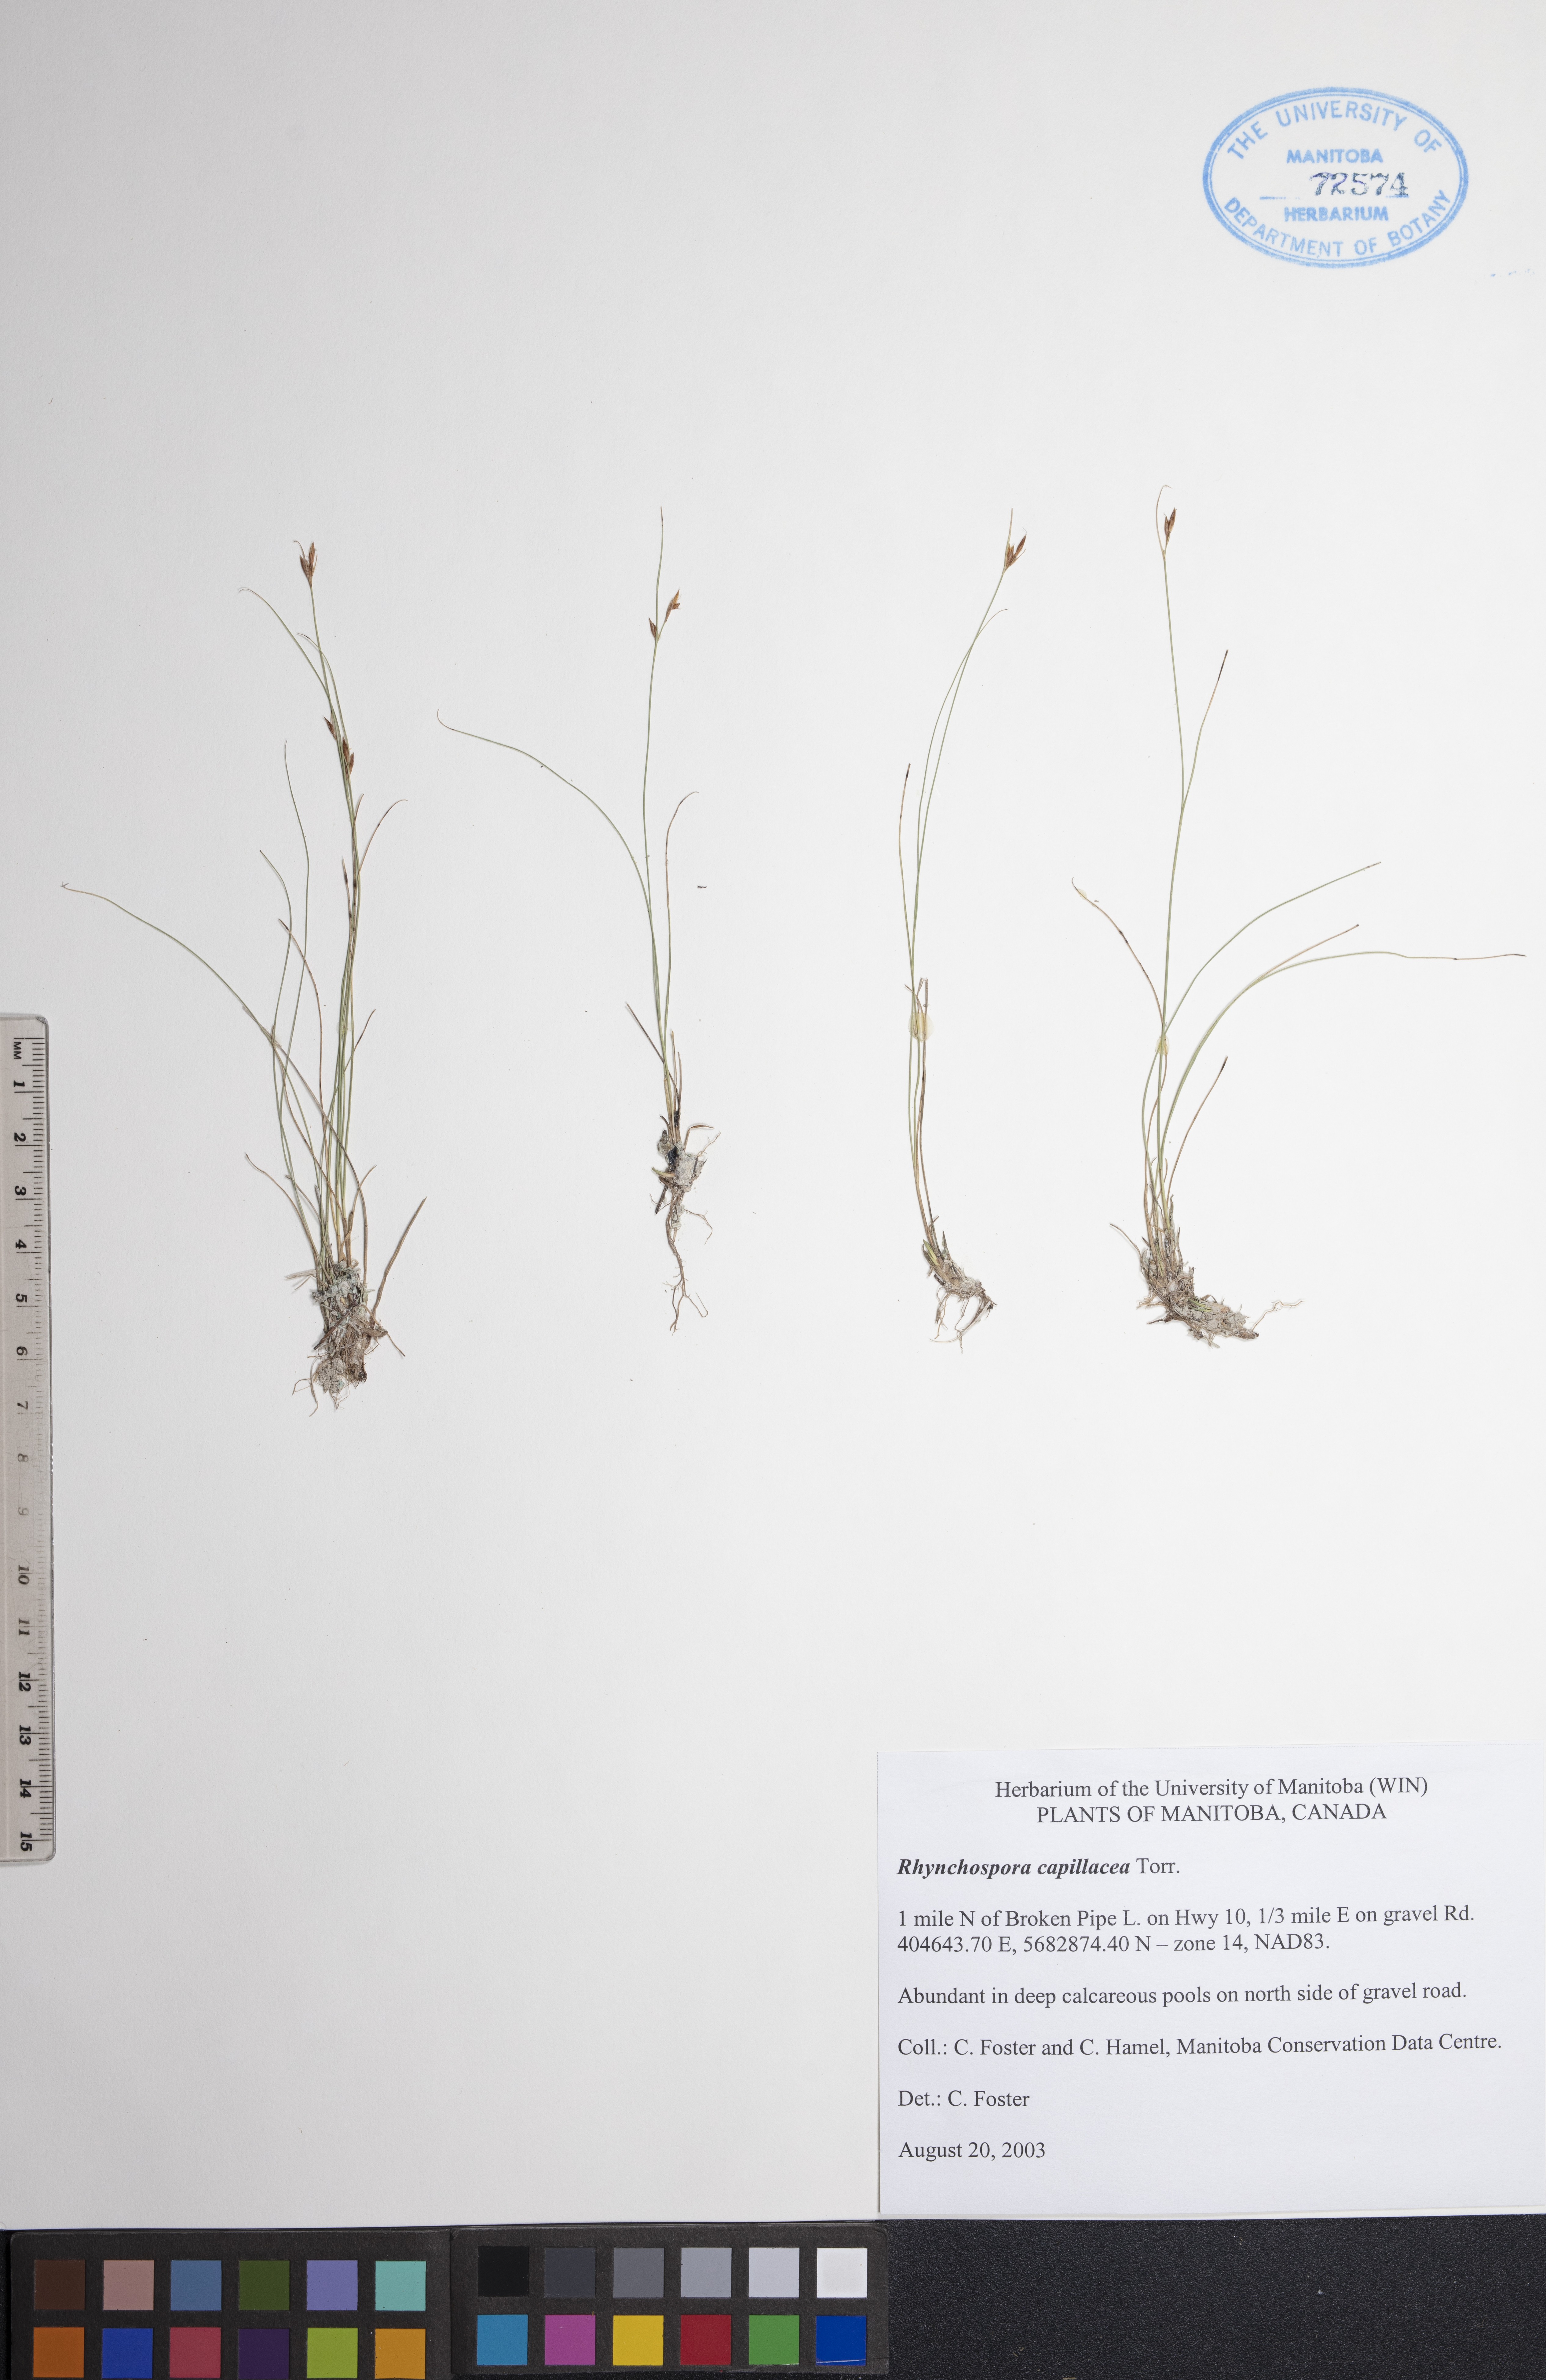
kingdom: Plantae
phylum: Tracheophyta
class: Liliopsida
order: Poales
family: Cyperaceae
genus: Rhynchospora
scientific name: Rhynchospora capillacea
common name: Capillary beakrush
